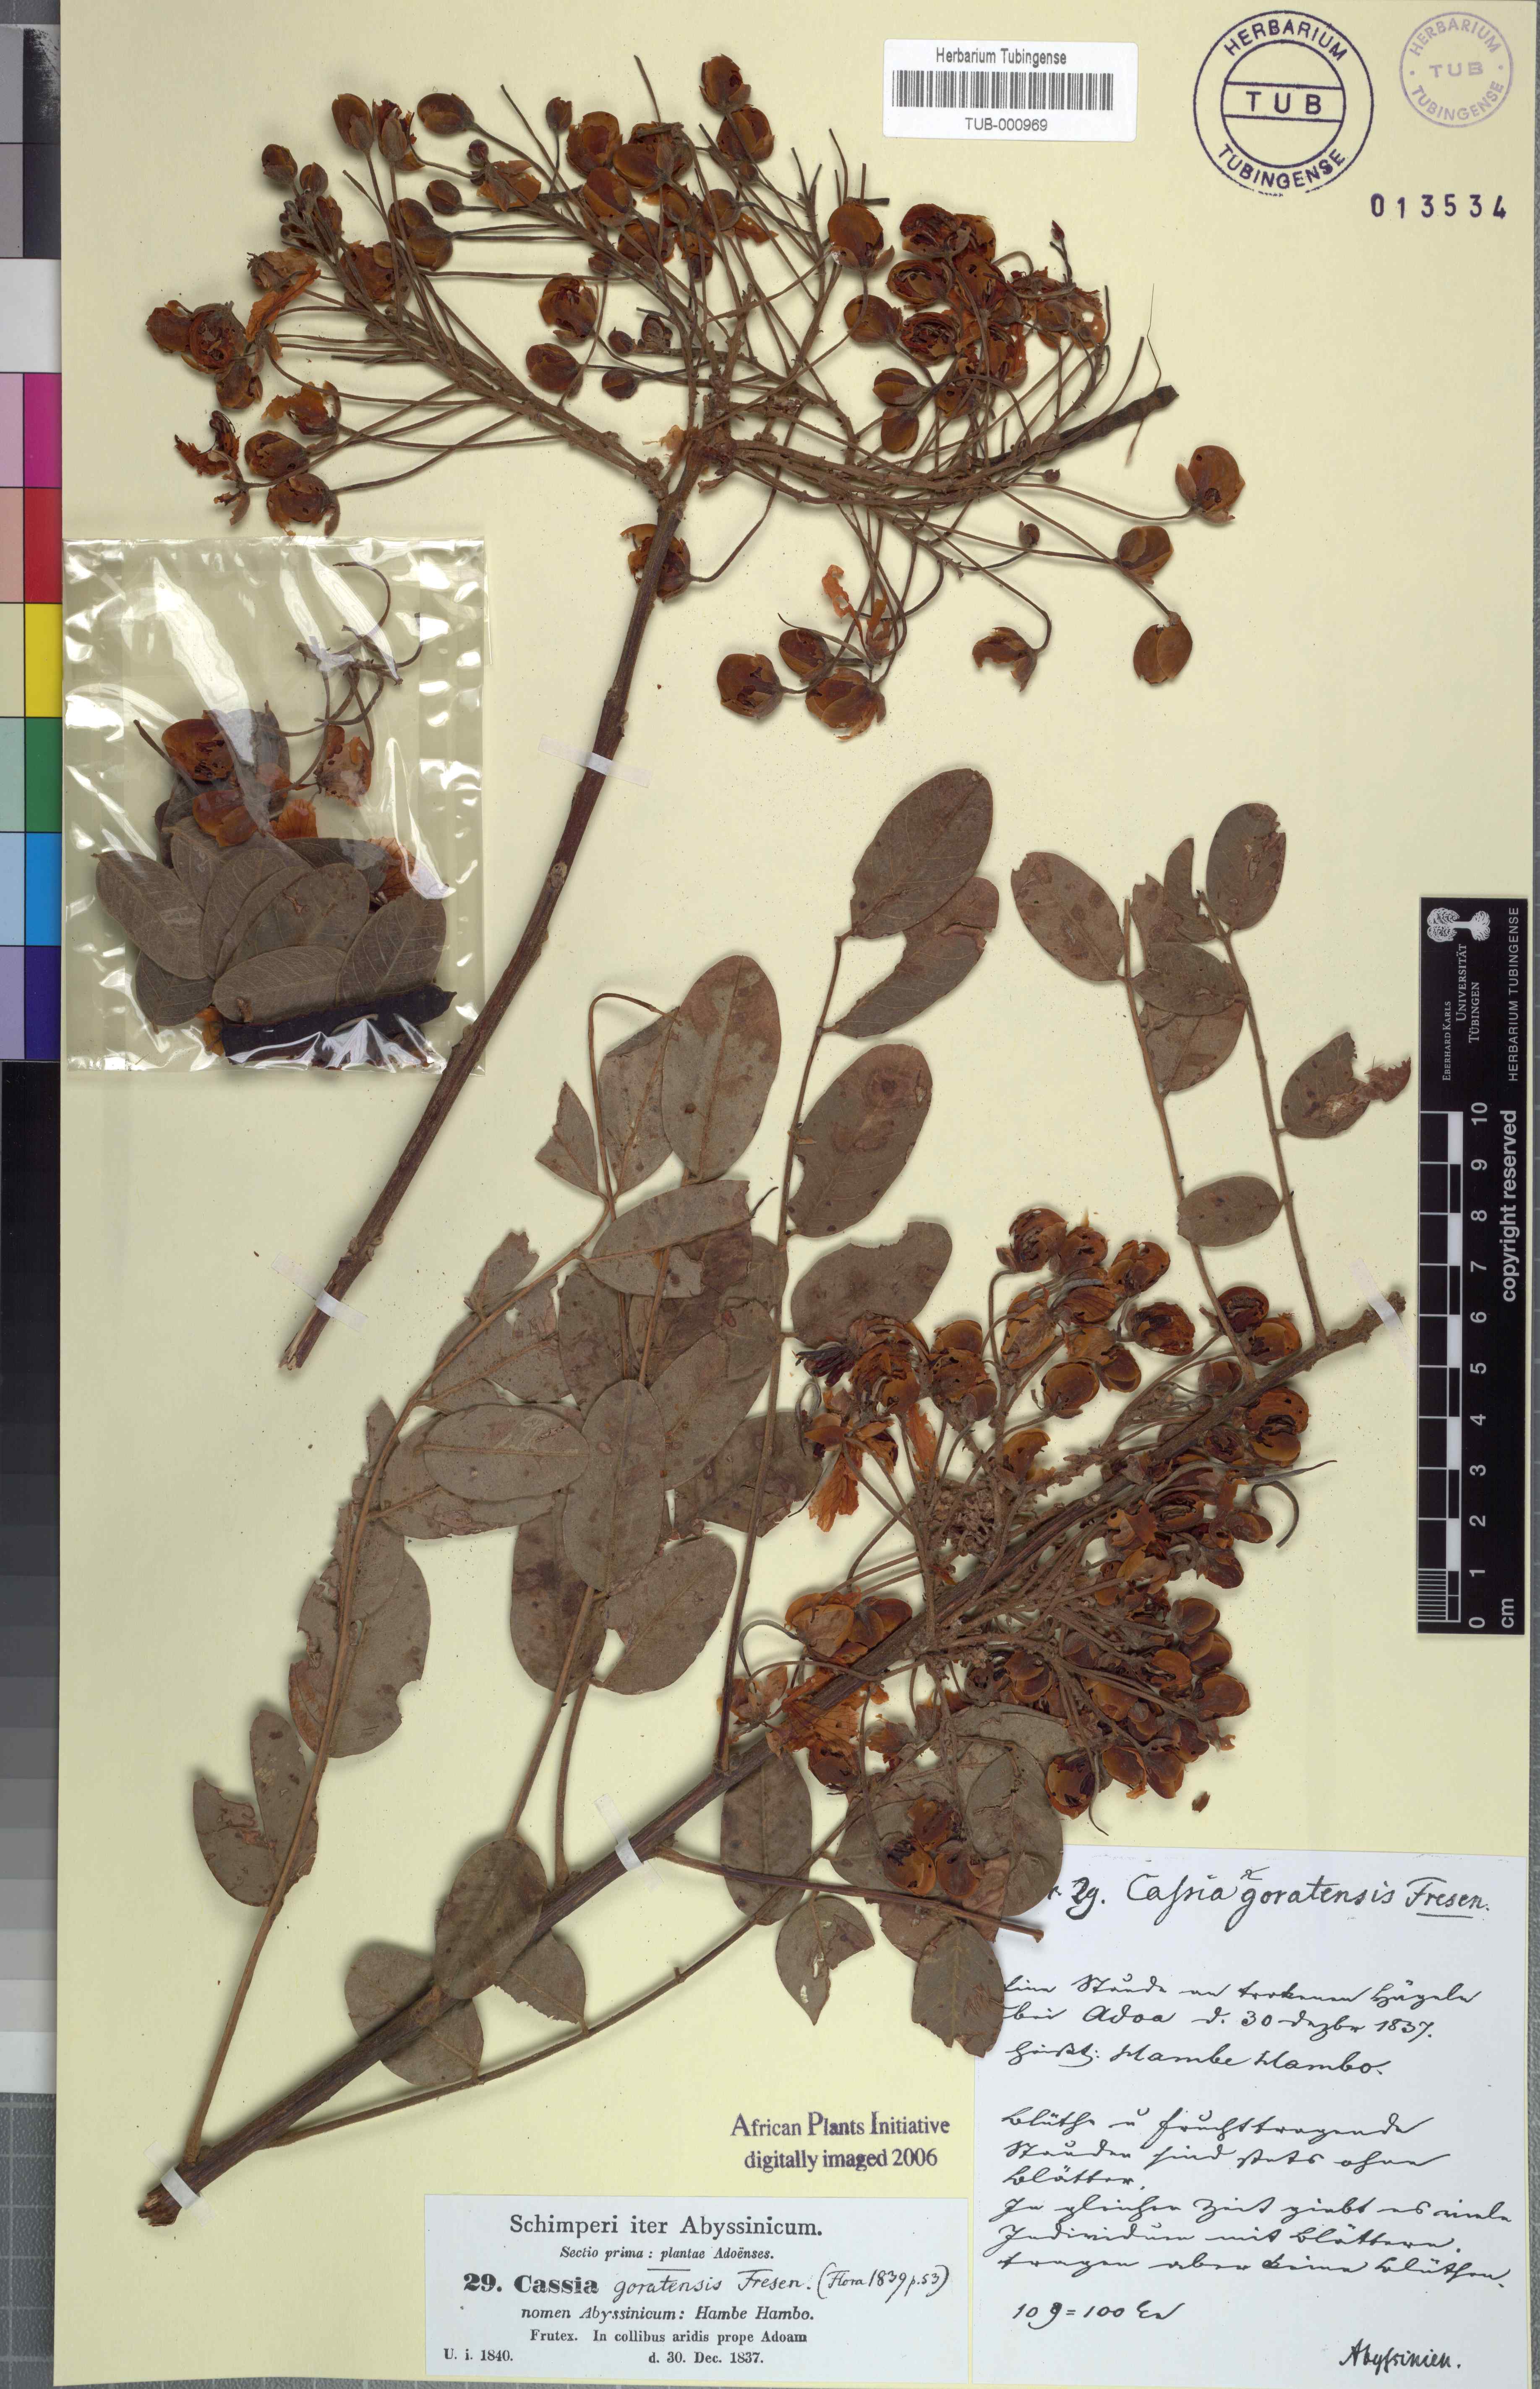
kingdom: Plantae
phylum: Tracheophyta
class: Magnoliopsida
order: Fabales
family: Fabaceae
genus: Senna
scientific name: Senna singueana
